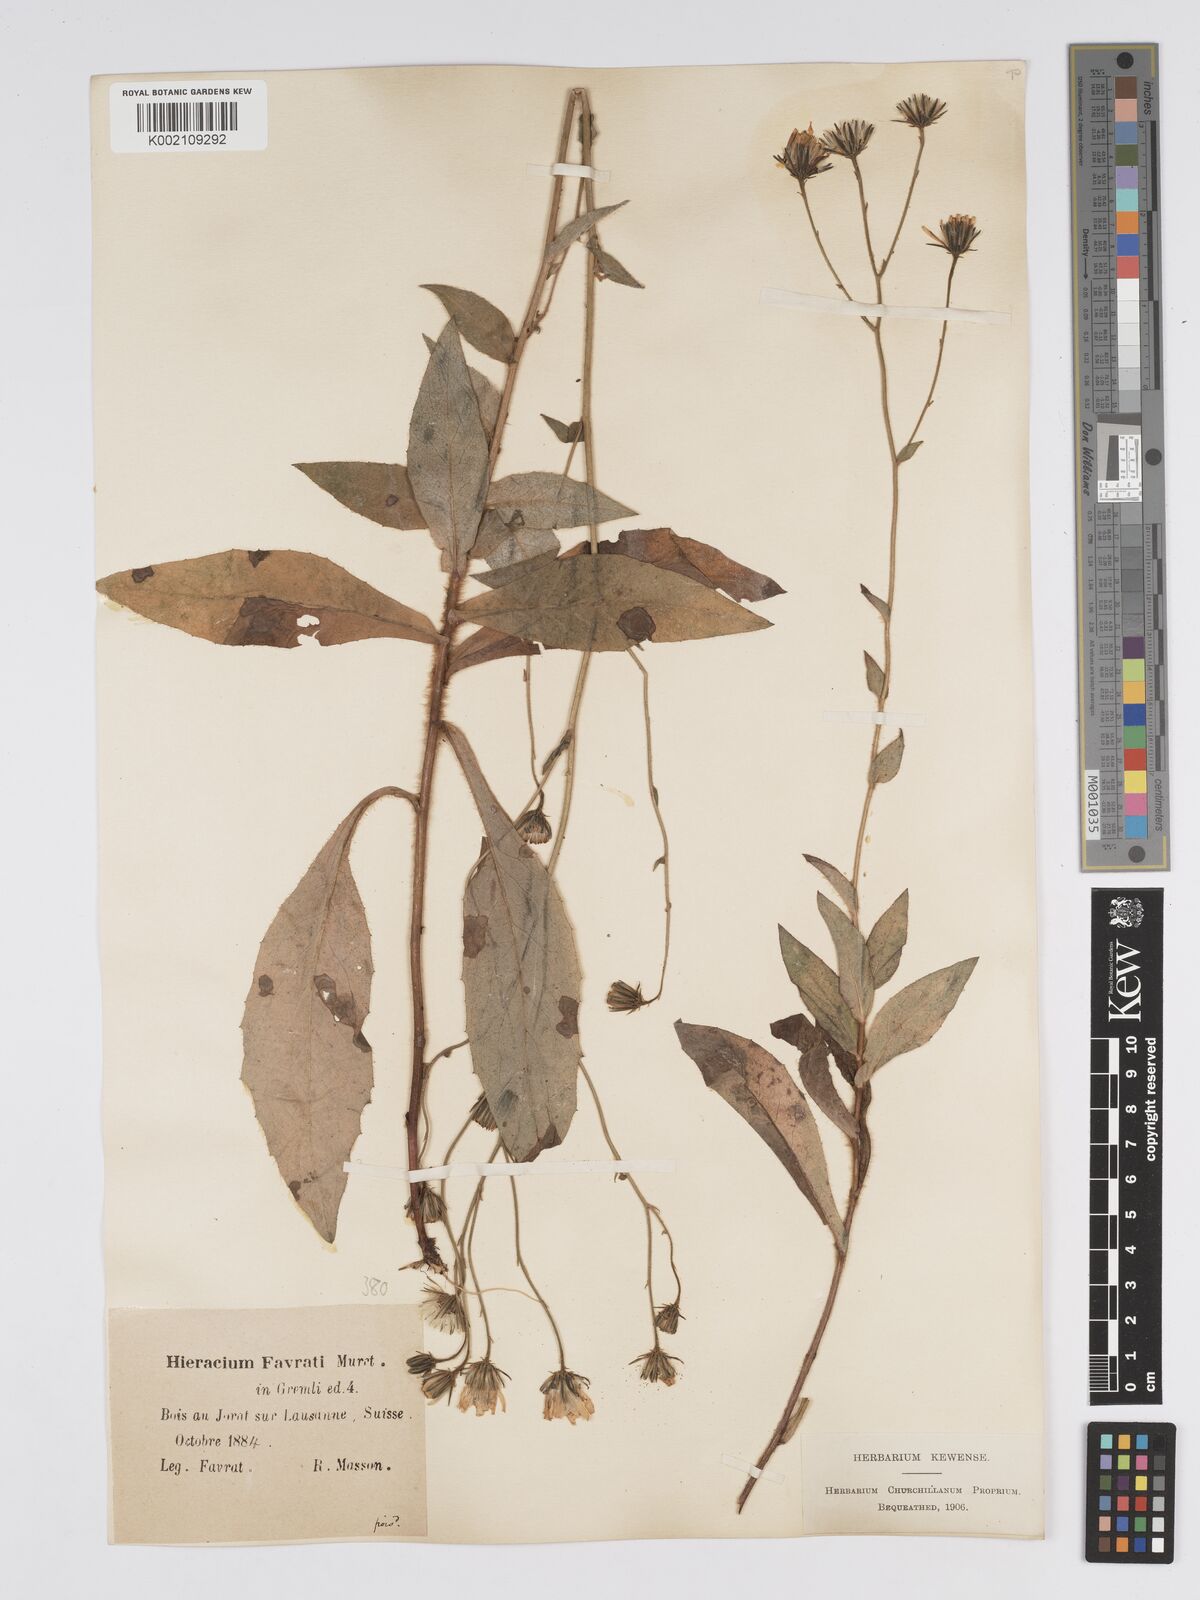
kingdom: Plantae
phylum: Tracheophyta
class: Magnoliopsida
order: Asterales
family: Asteraceae
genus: Hieracium
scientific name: Hieracium favratii
